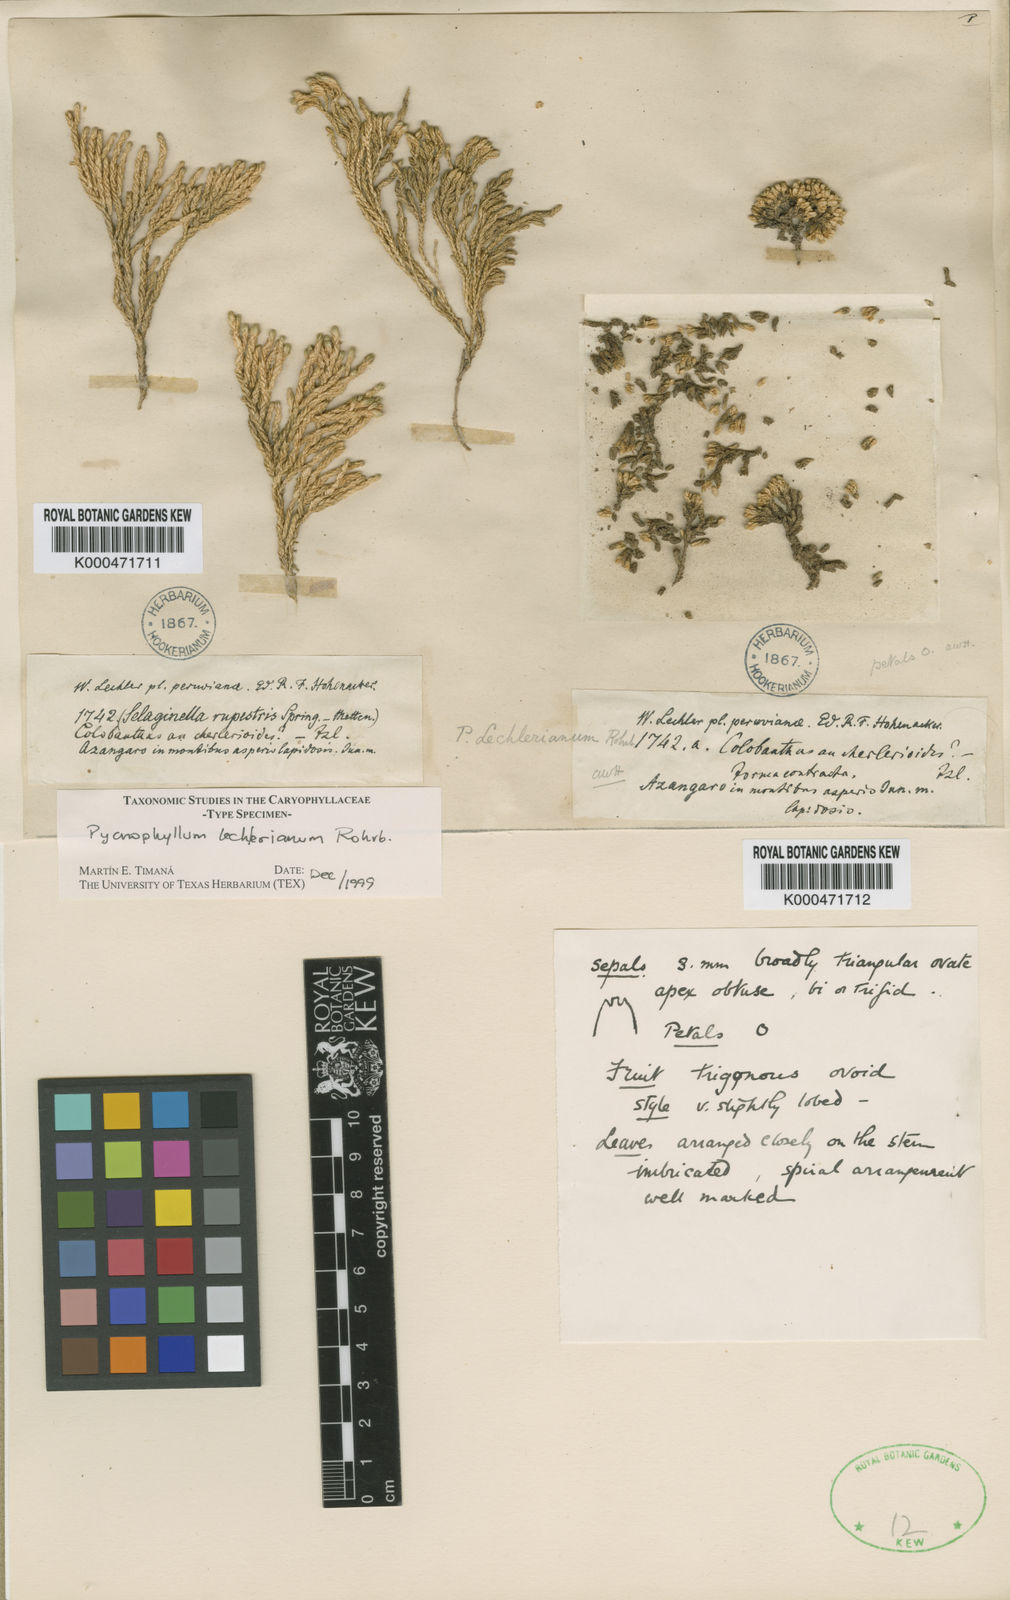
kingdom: Plantae
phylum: Tracheophyta
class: Magnoliopsida
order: Caryophyllales
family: Caryophyllaceae
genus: Pycnophyllum
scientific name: Pycnophyllum lechlerianum
